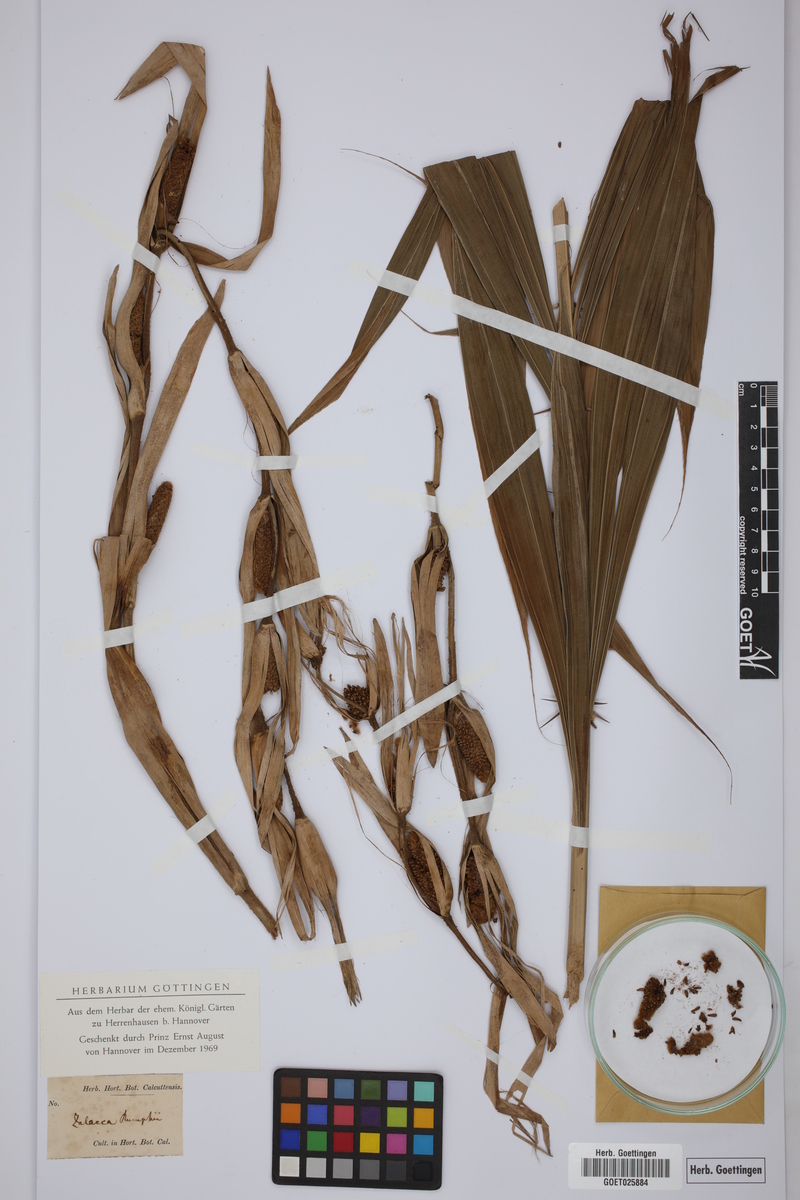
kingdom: Plantae
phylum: Tracheophyta
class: Liliopsida
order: Arecales
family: Arecaceae
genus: Salacca
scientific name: Salacca zalacca
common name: Salak
